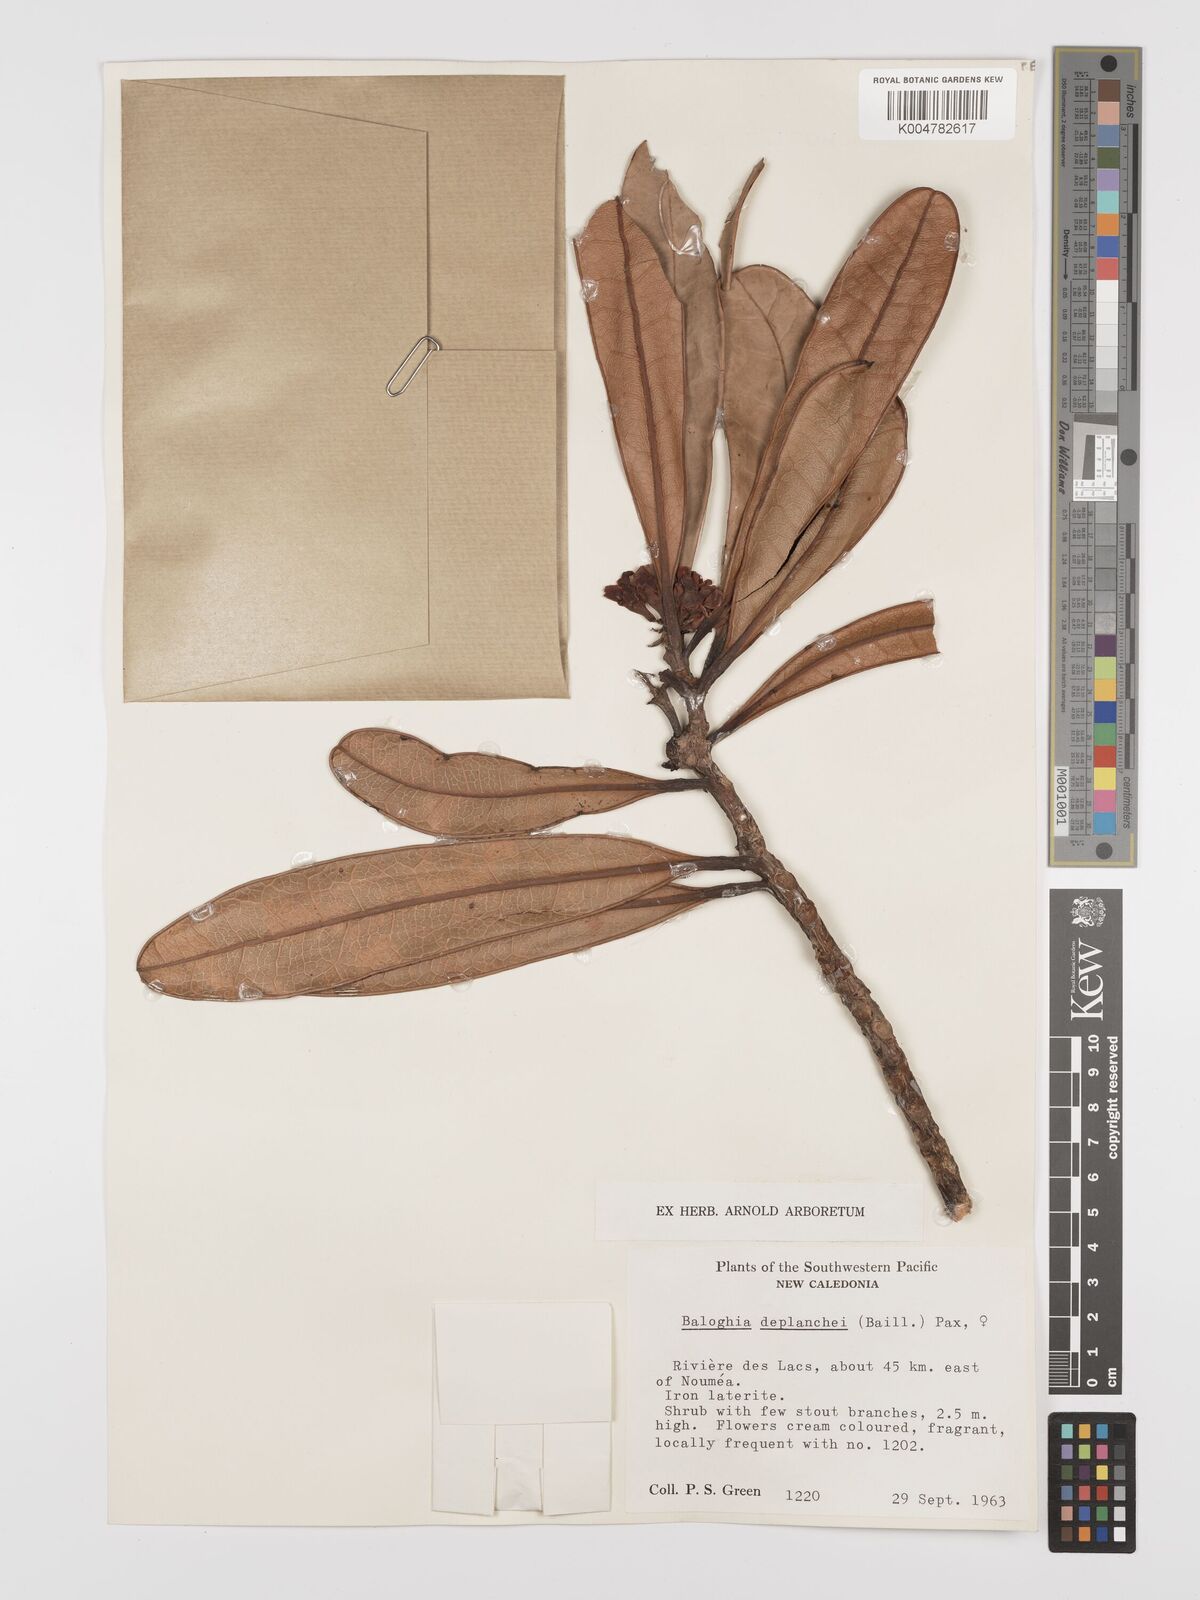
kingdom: Plantae
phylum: Tracheophyta
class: Magnoliopsida
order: Malpighiales
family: Euphorbiaceae
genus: Baloghia
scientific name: Baloghia deplanchei
